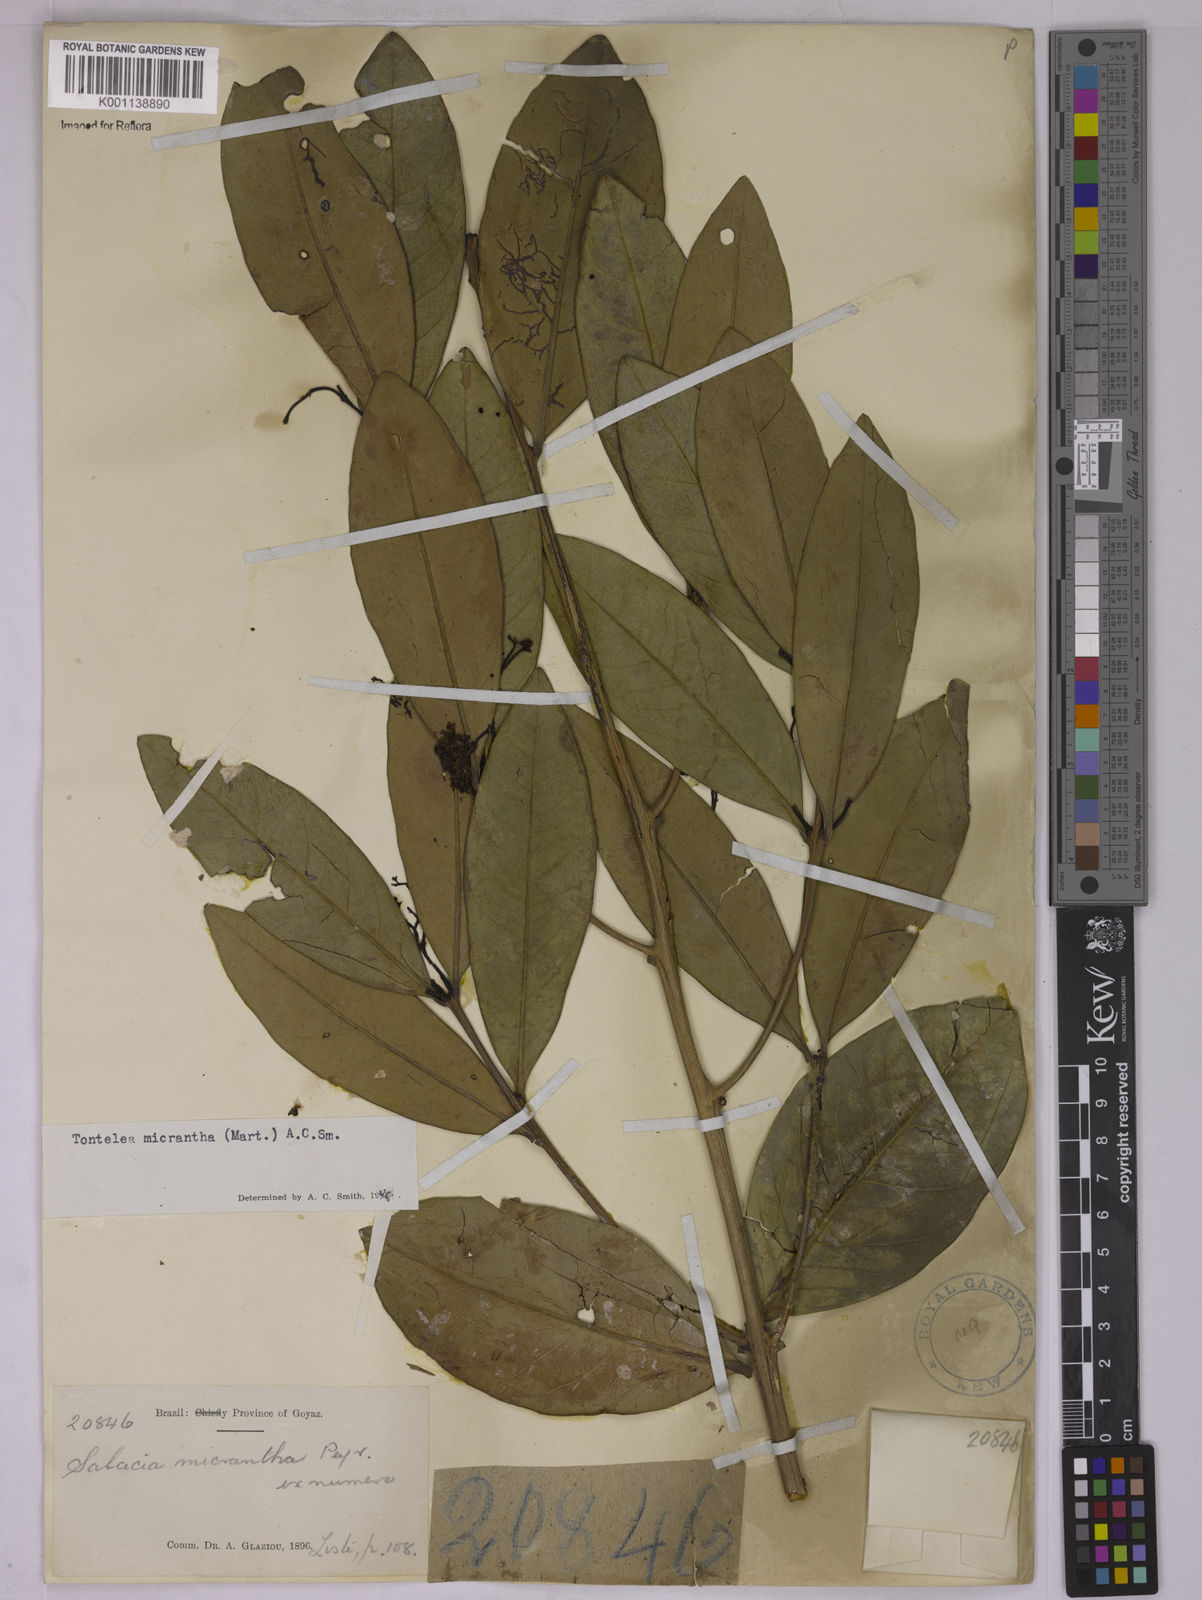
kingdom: Plantae
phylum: Tracheophyta
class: Magnoliopsida
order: Celastrales
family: Celastraceae
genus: Tontelea
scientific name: Tontelea micrantha
